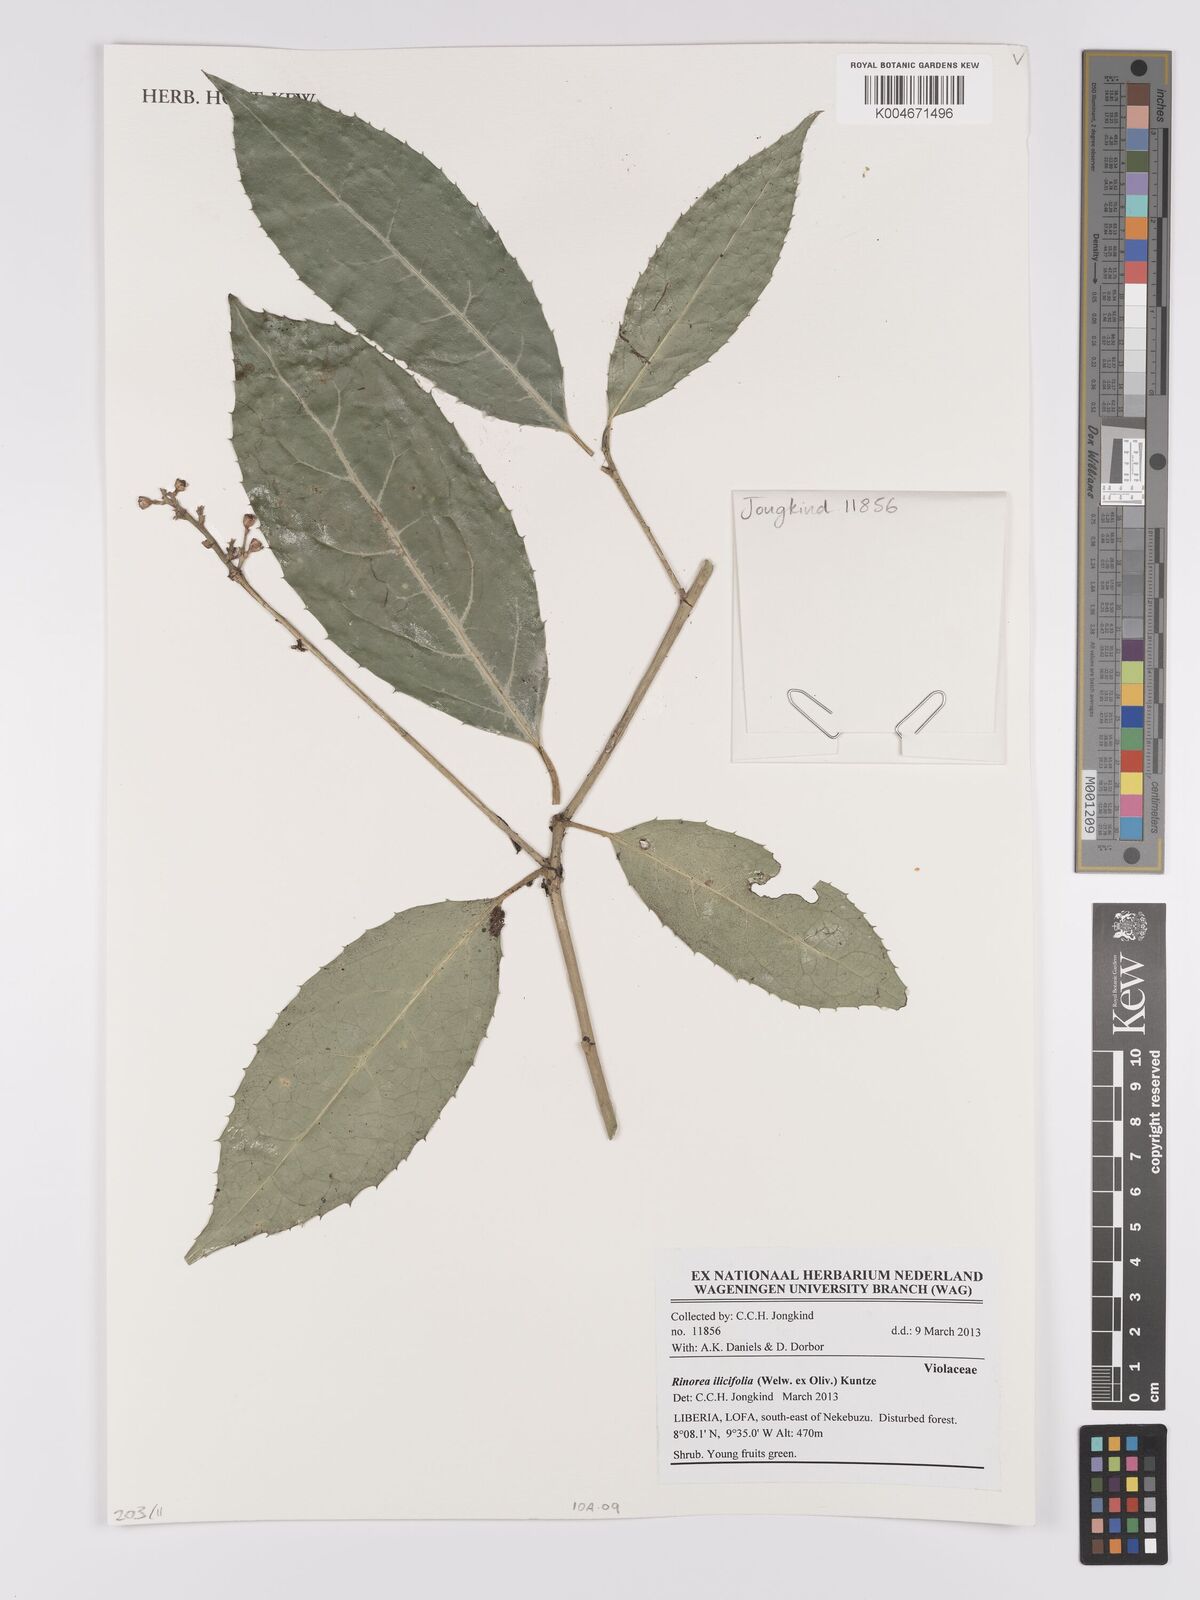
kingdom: Plantae
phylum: Tracheophyta
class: Magnoliopsida
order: Malpighiales
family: Violaceae
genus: Rinorea
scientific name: Rinorea ilicifolia
